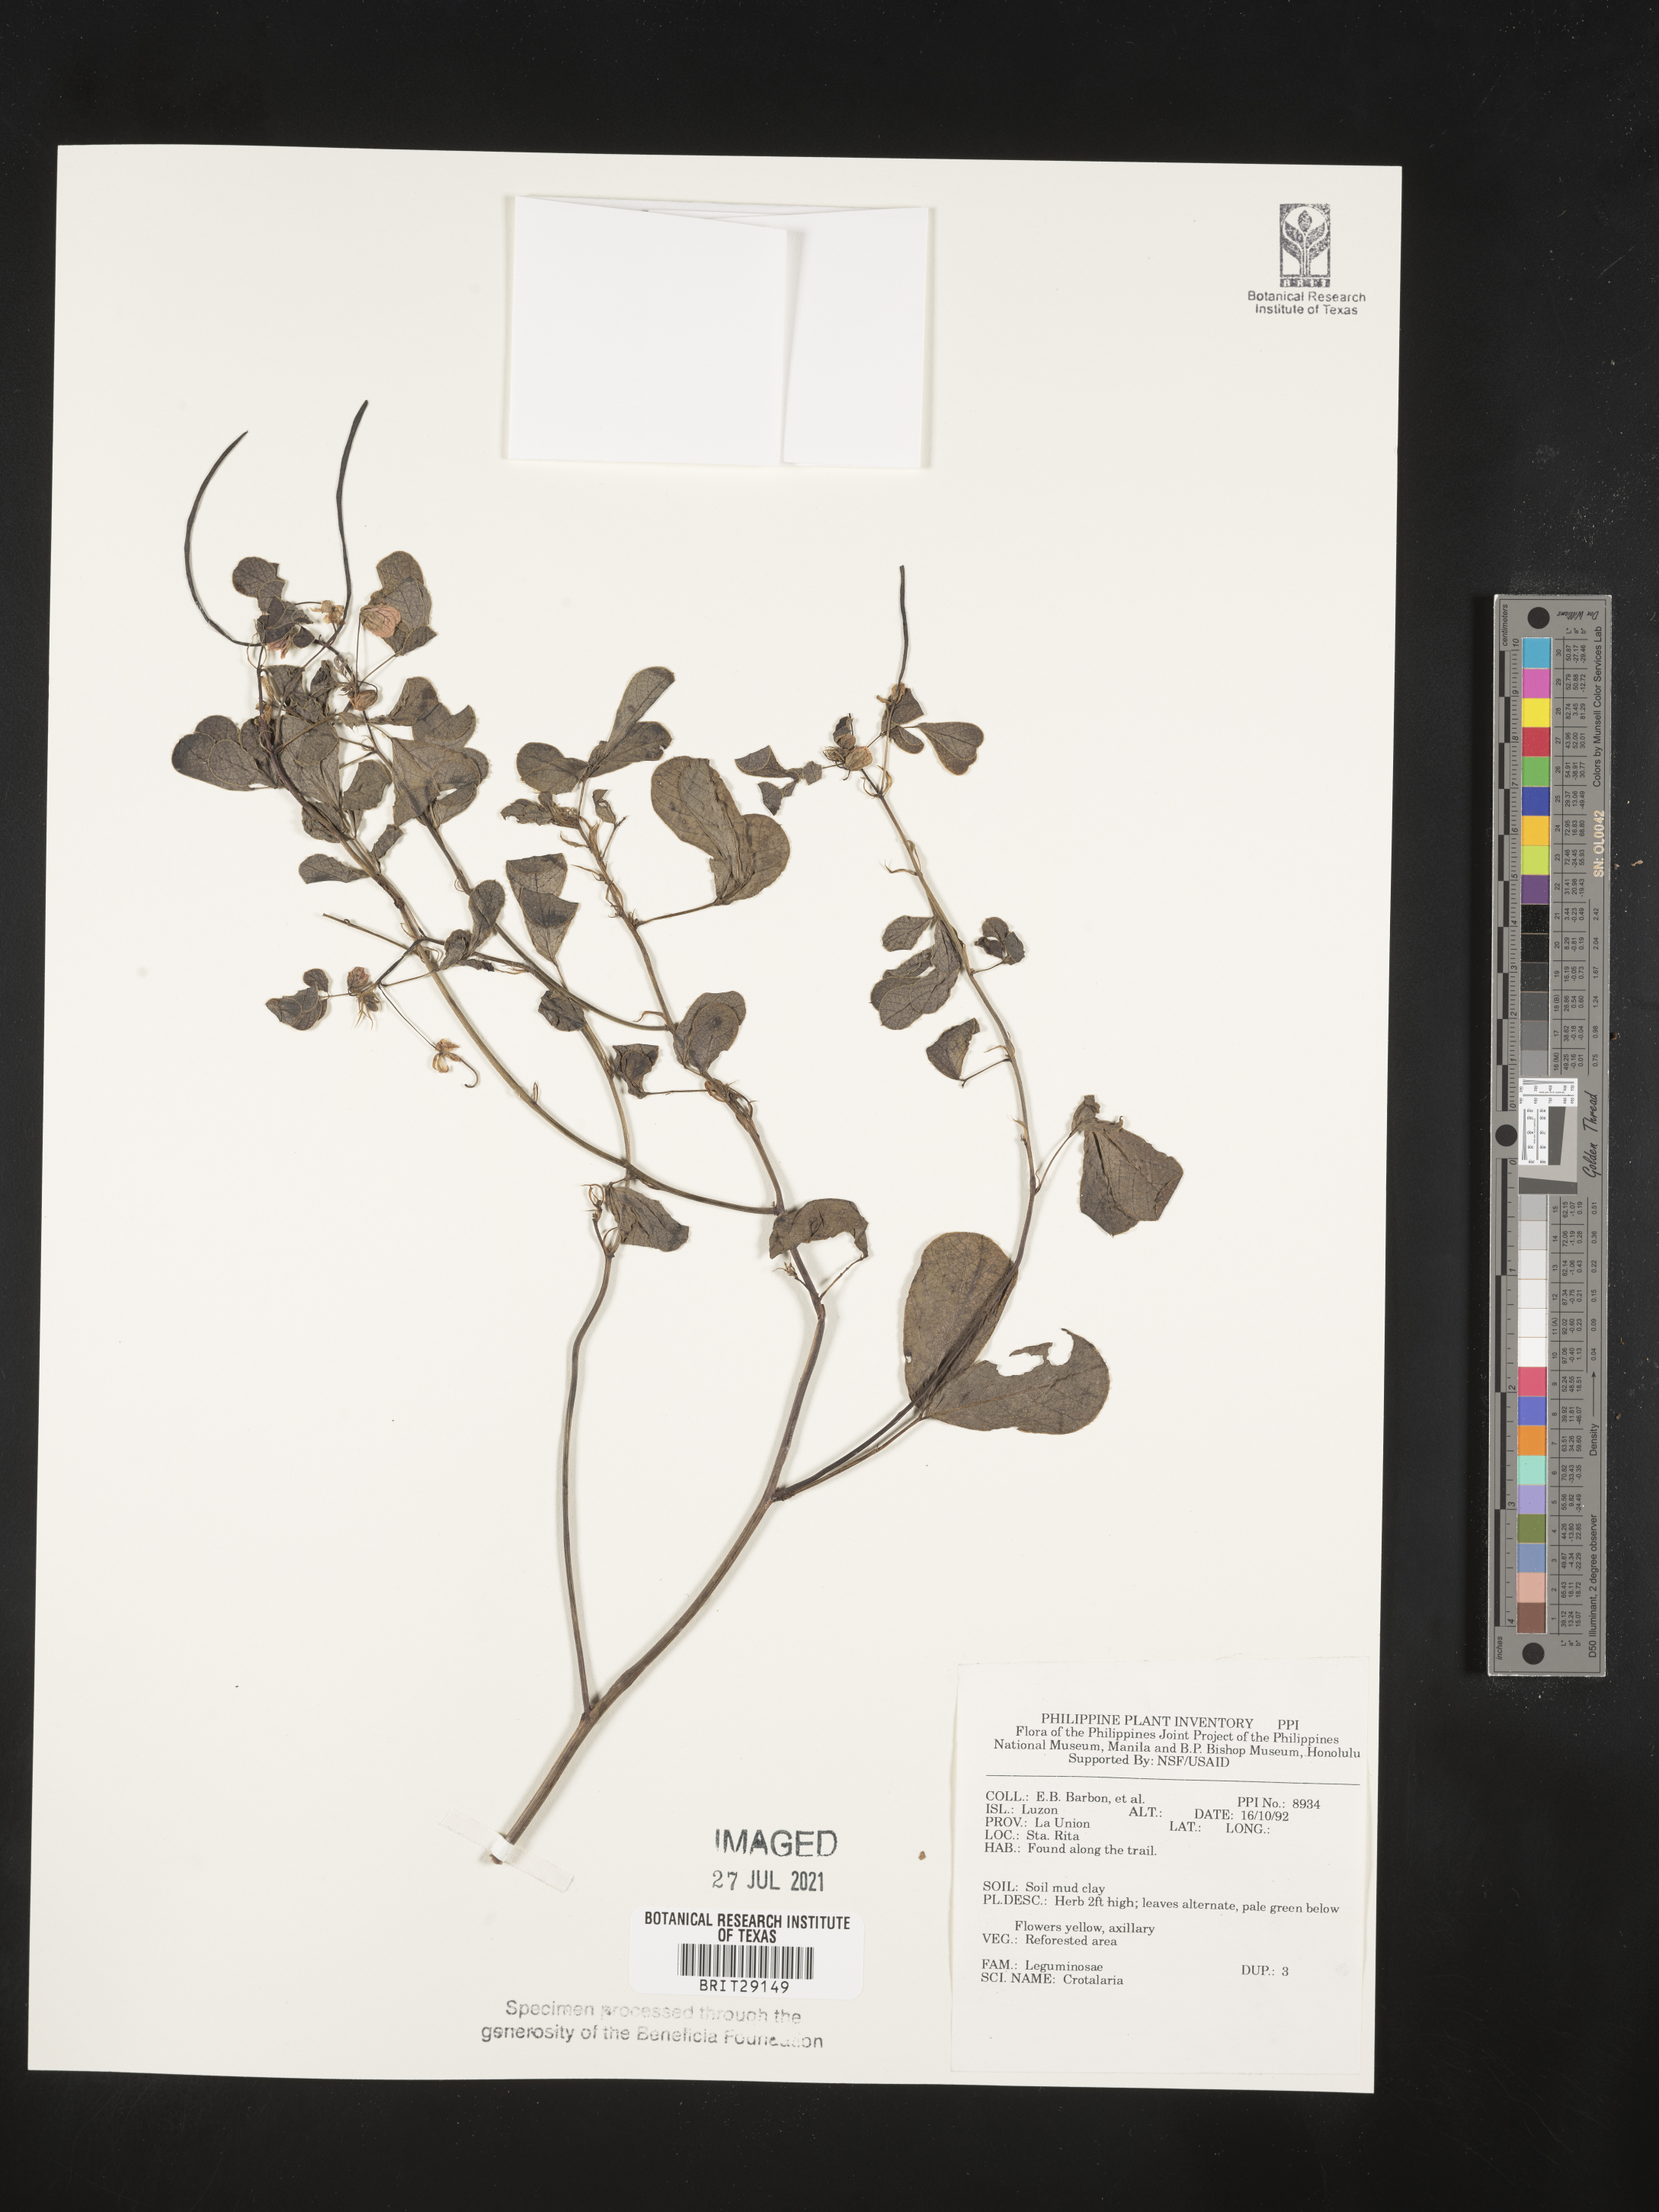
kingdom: Plantae
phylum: Tracheophyta
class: Magnoliopsida
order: Fabales
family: Fabaceae
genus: Crotalaria
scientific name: Crotalaria
